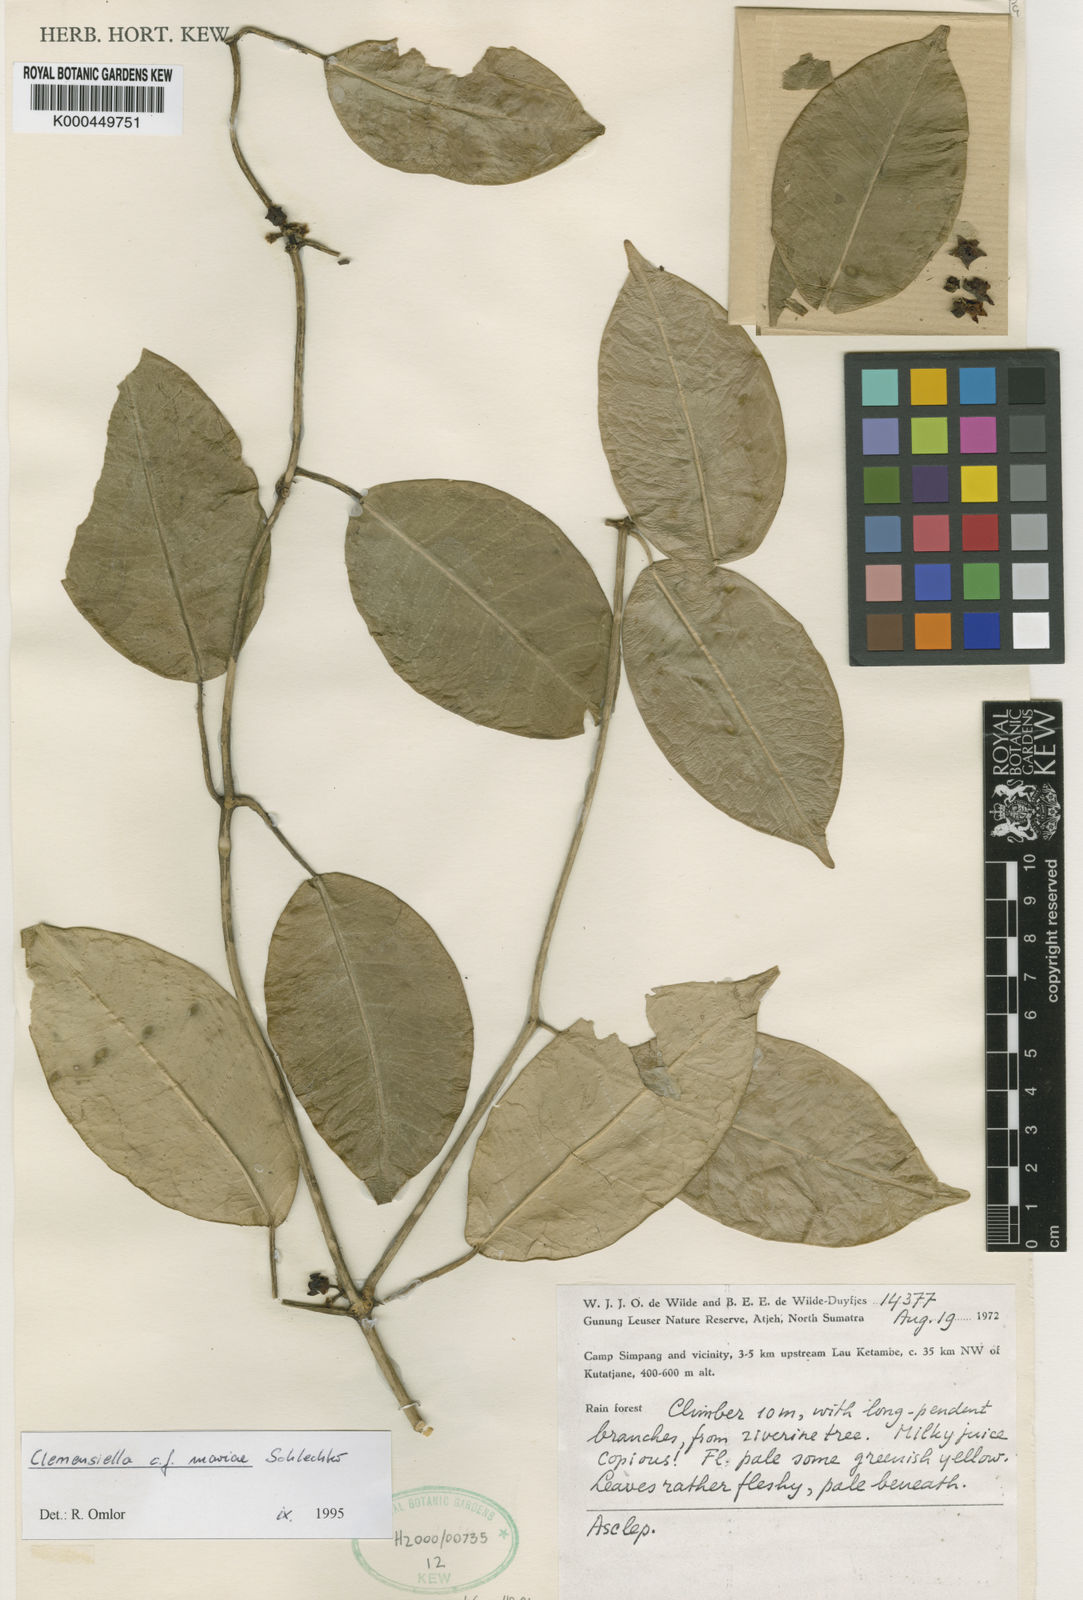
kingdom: Plantae
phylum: Tracheophyta
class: Magnoliopsida
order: Gentianales
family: Apocynaceae
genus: Hoya
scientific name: Hoya omlorii
